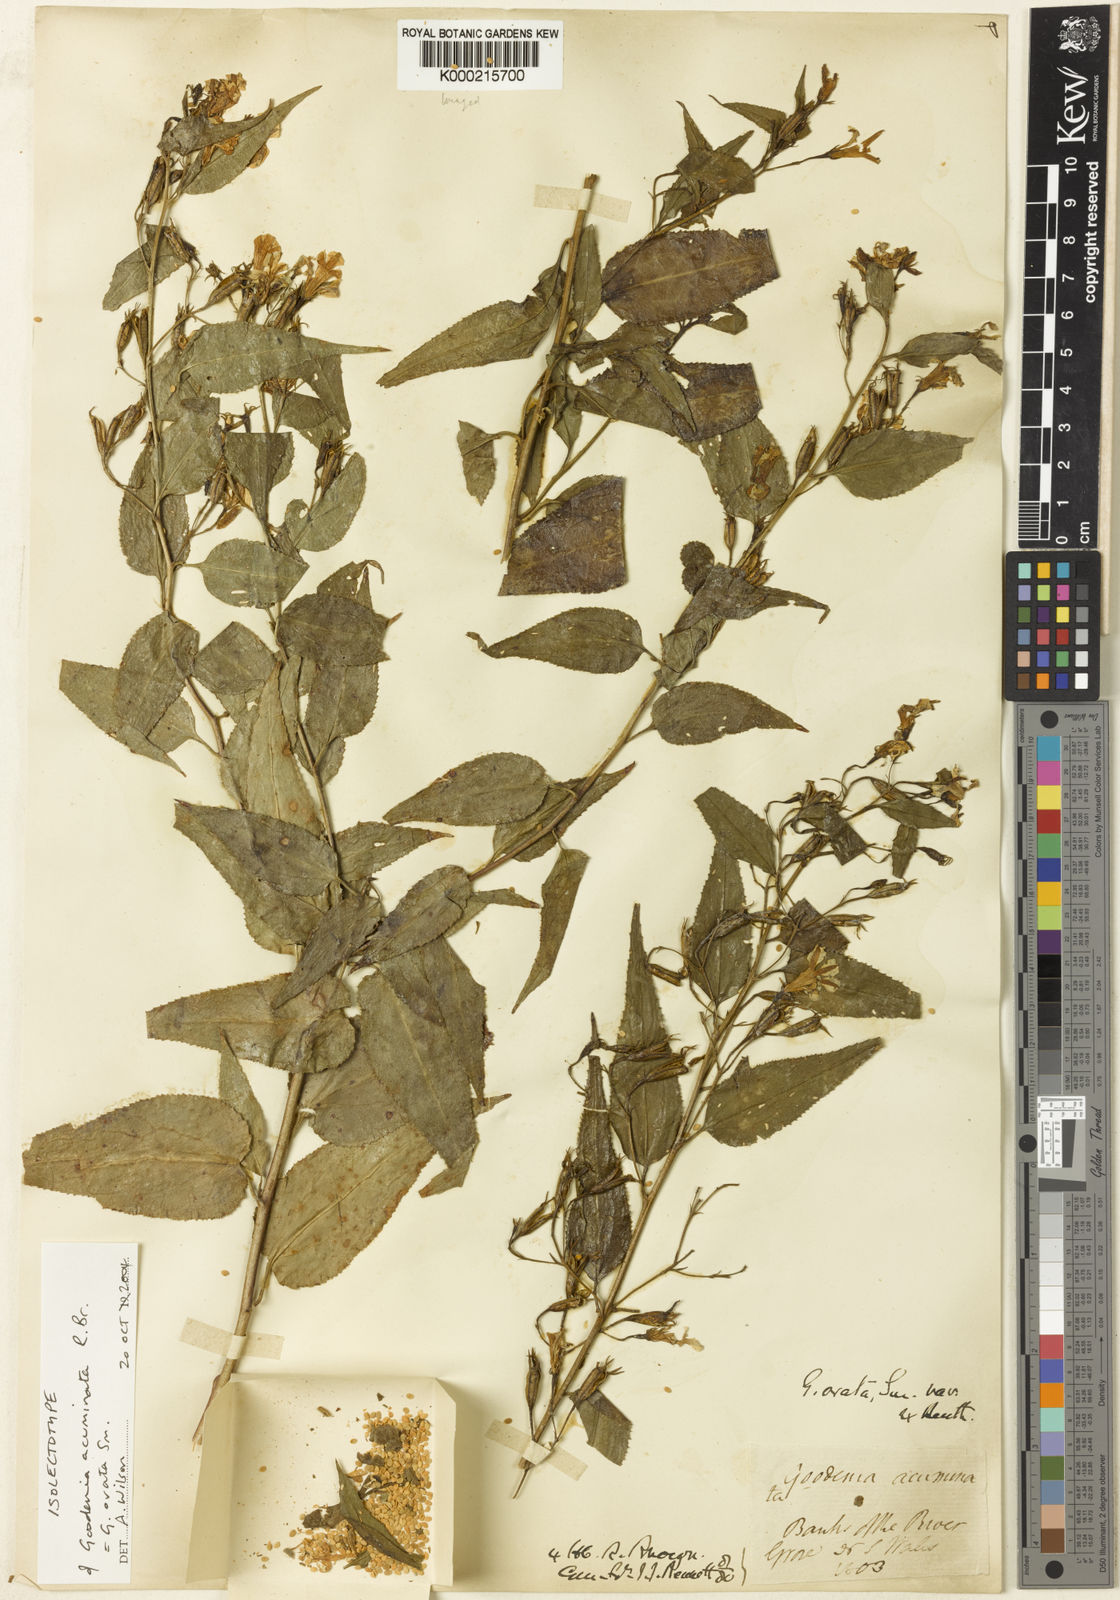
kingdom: Plantae
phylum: Tracheophyta
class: Magnoliopsida
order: Asterales
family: Goodeniaceae
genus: Goodenia
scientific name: Goodenia ovata
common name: Hop goodenia
